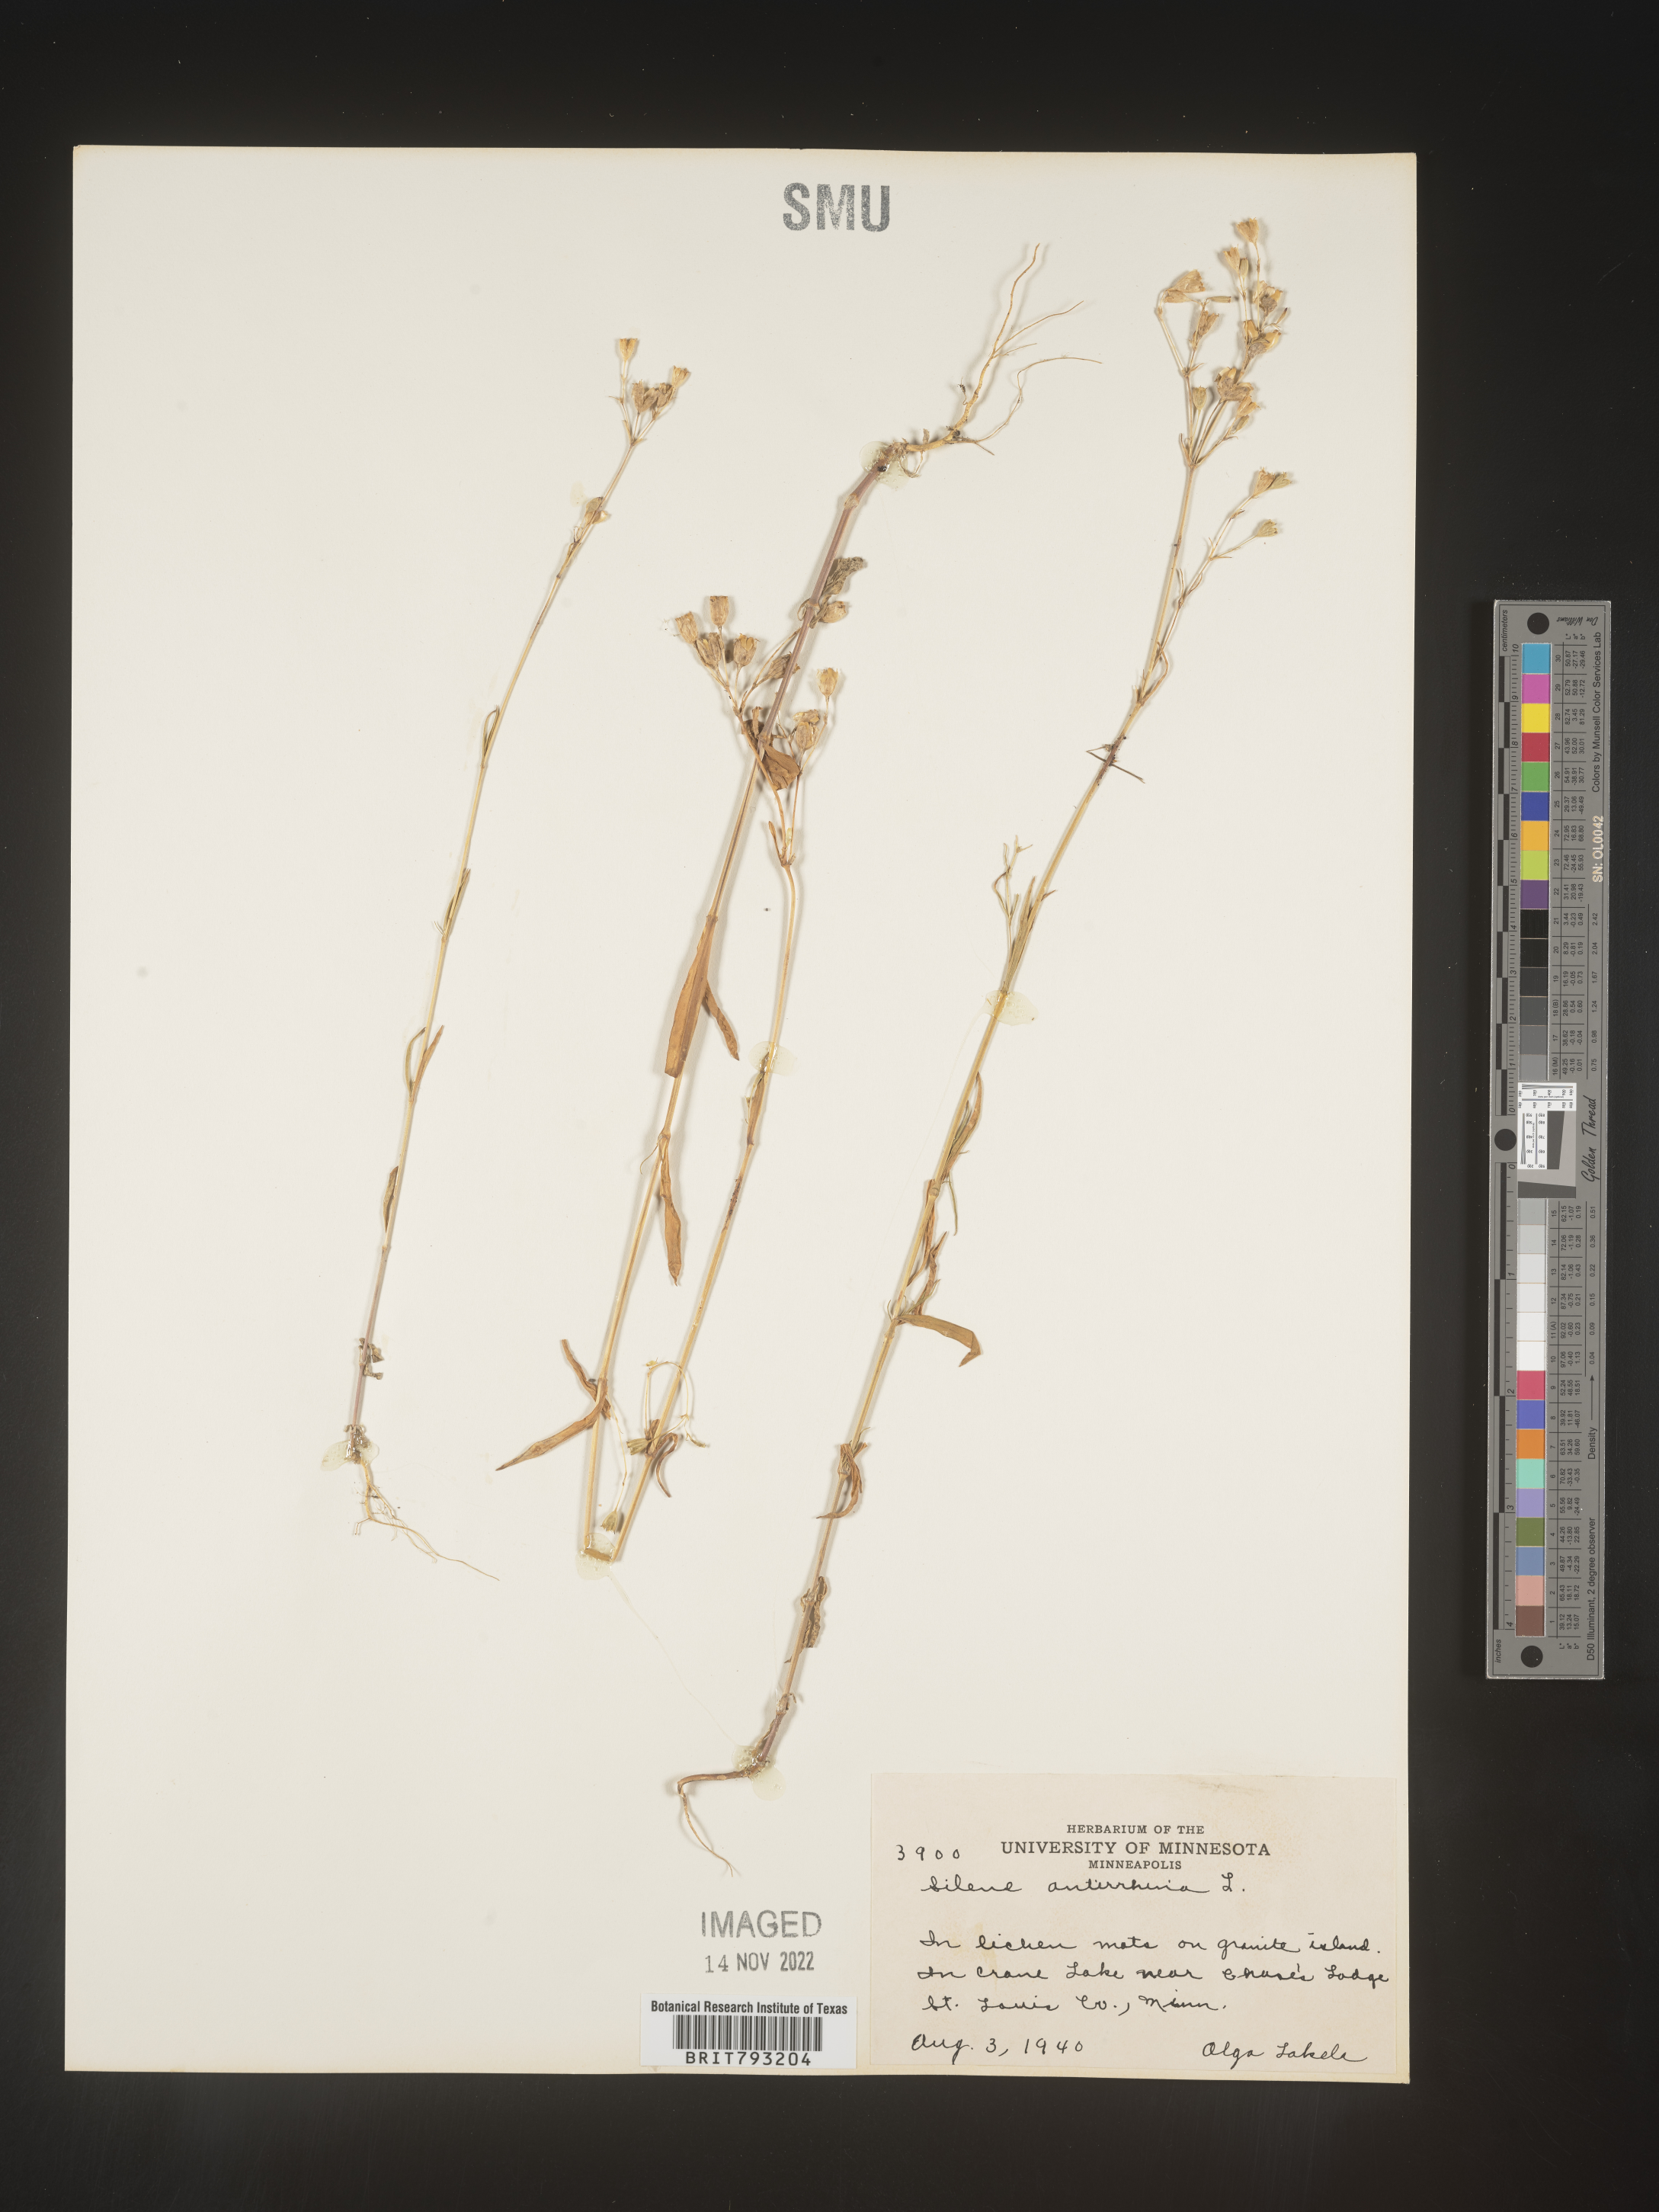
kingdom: Plantae
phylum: Tracheophyta
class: Magnoliopsida
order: Caryophyllales
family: Caryophyllaceae
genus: Silene
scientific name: Silene antirrhina
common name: Sleepy catchfly
